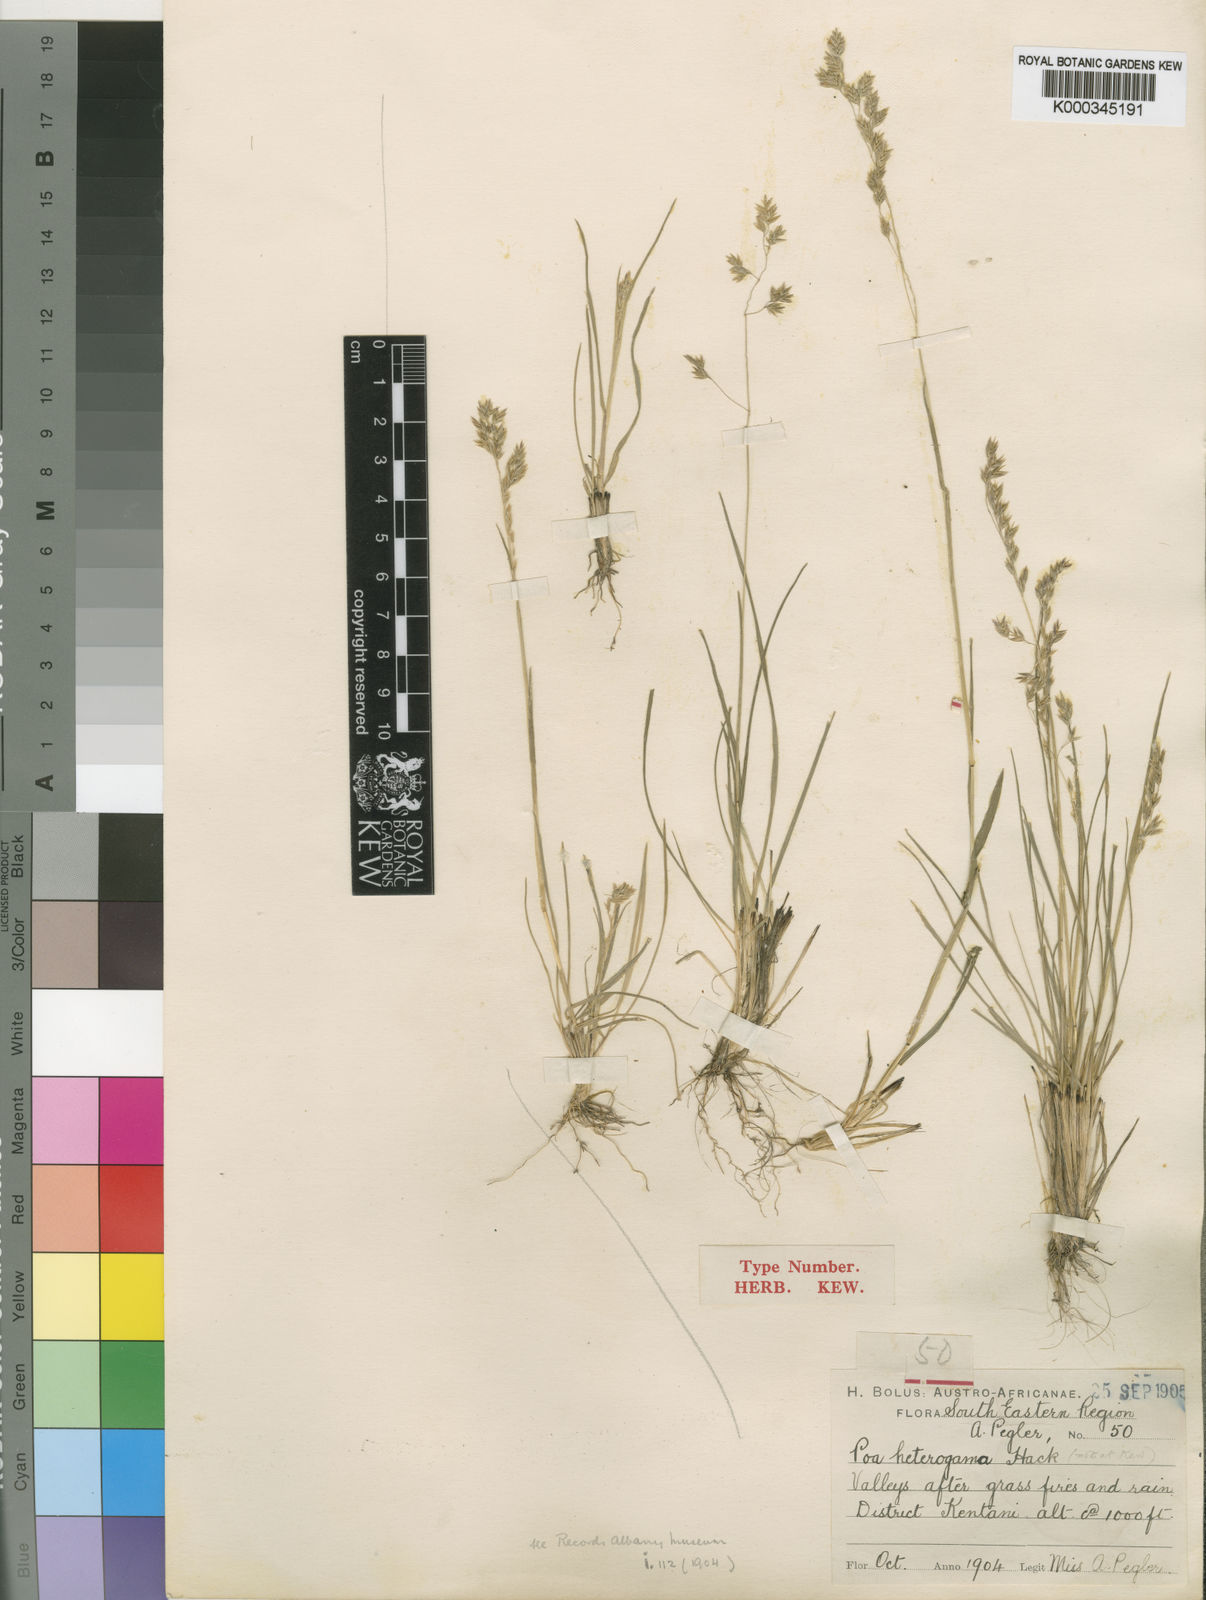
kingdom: Plantae
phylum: Tracheophyta
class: Liliopsida
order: Poales
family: Poaceae
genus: Poa
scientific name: Poa binata
